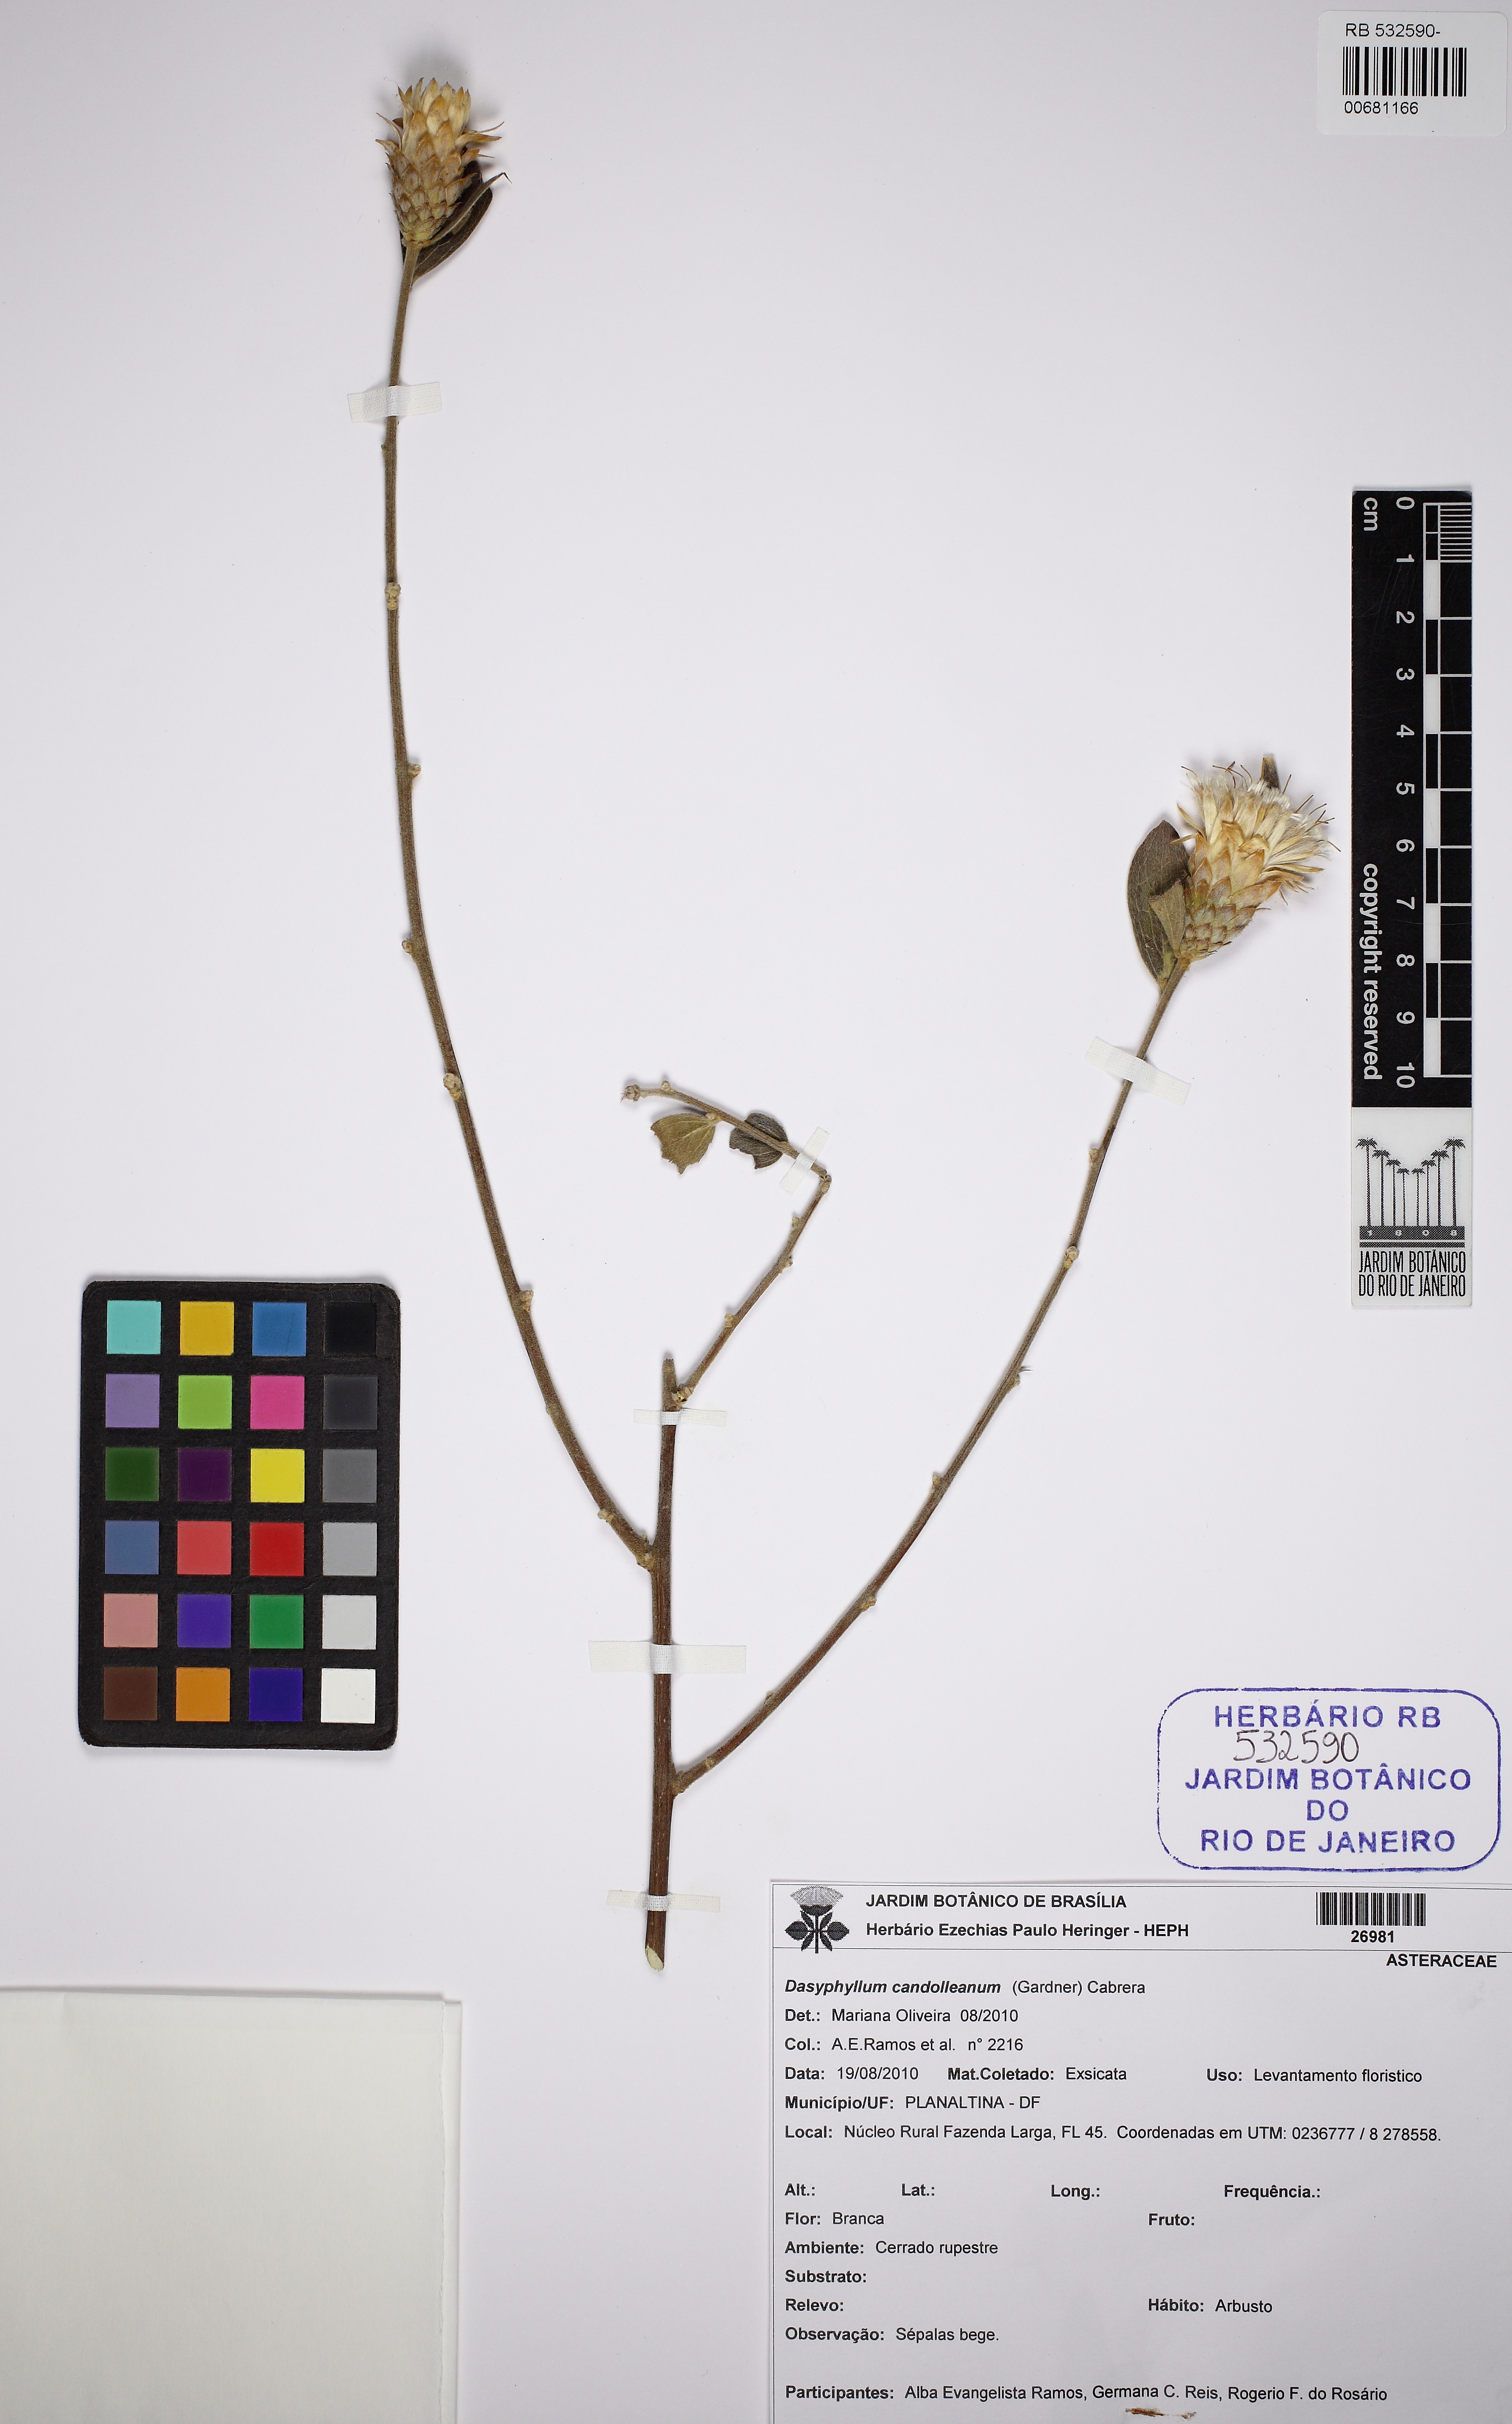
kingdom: Plantae
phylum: Tracheophyta
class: Magnoliopsida
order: Asterales
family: Asteraceae
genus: Dasyphyllum
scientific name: Dasyphyllum sprengelianum
